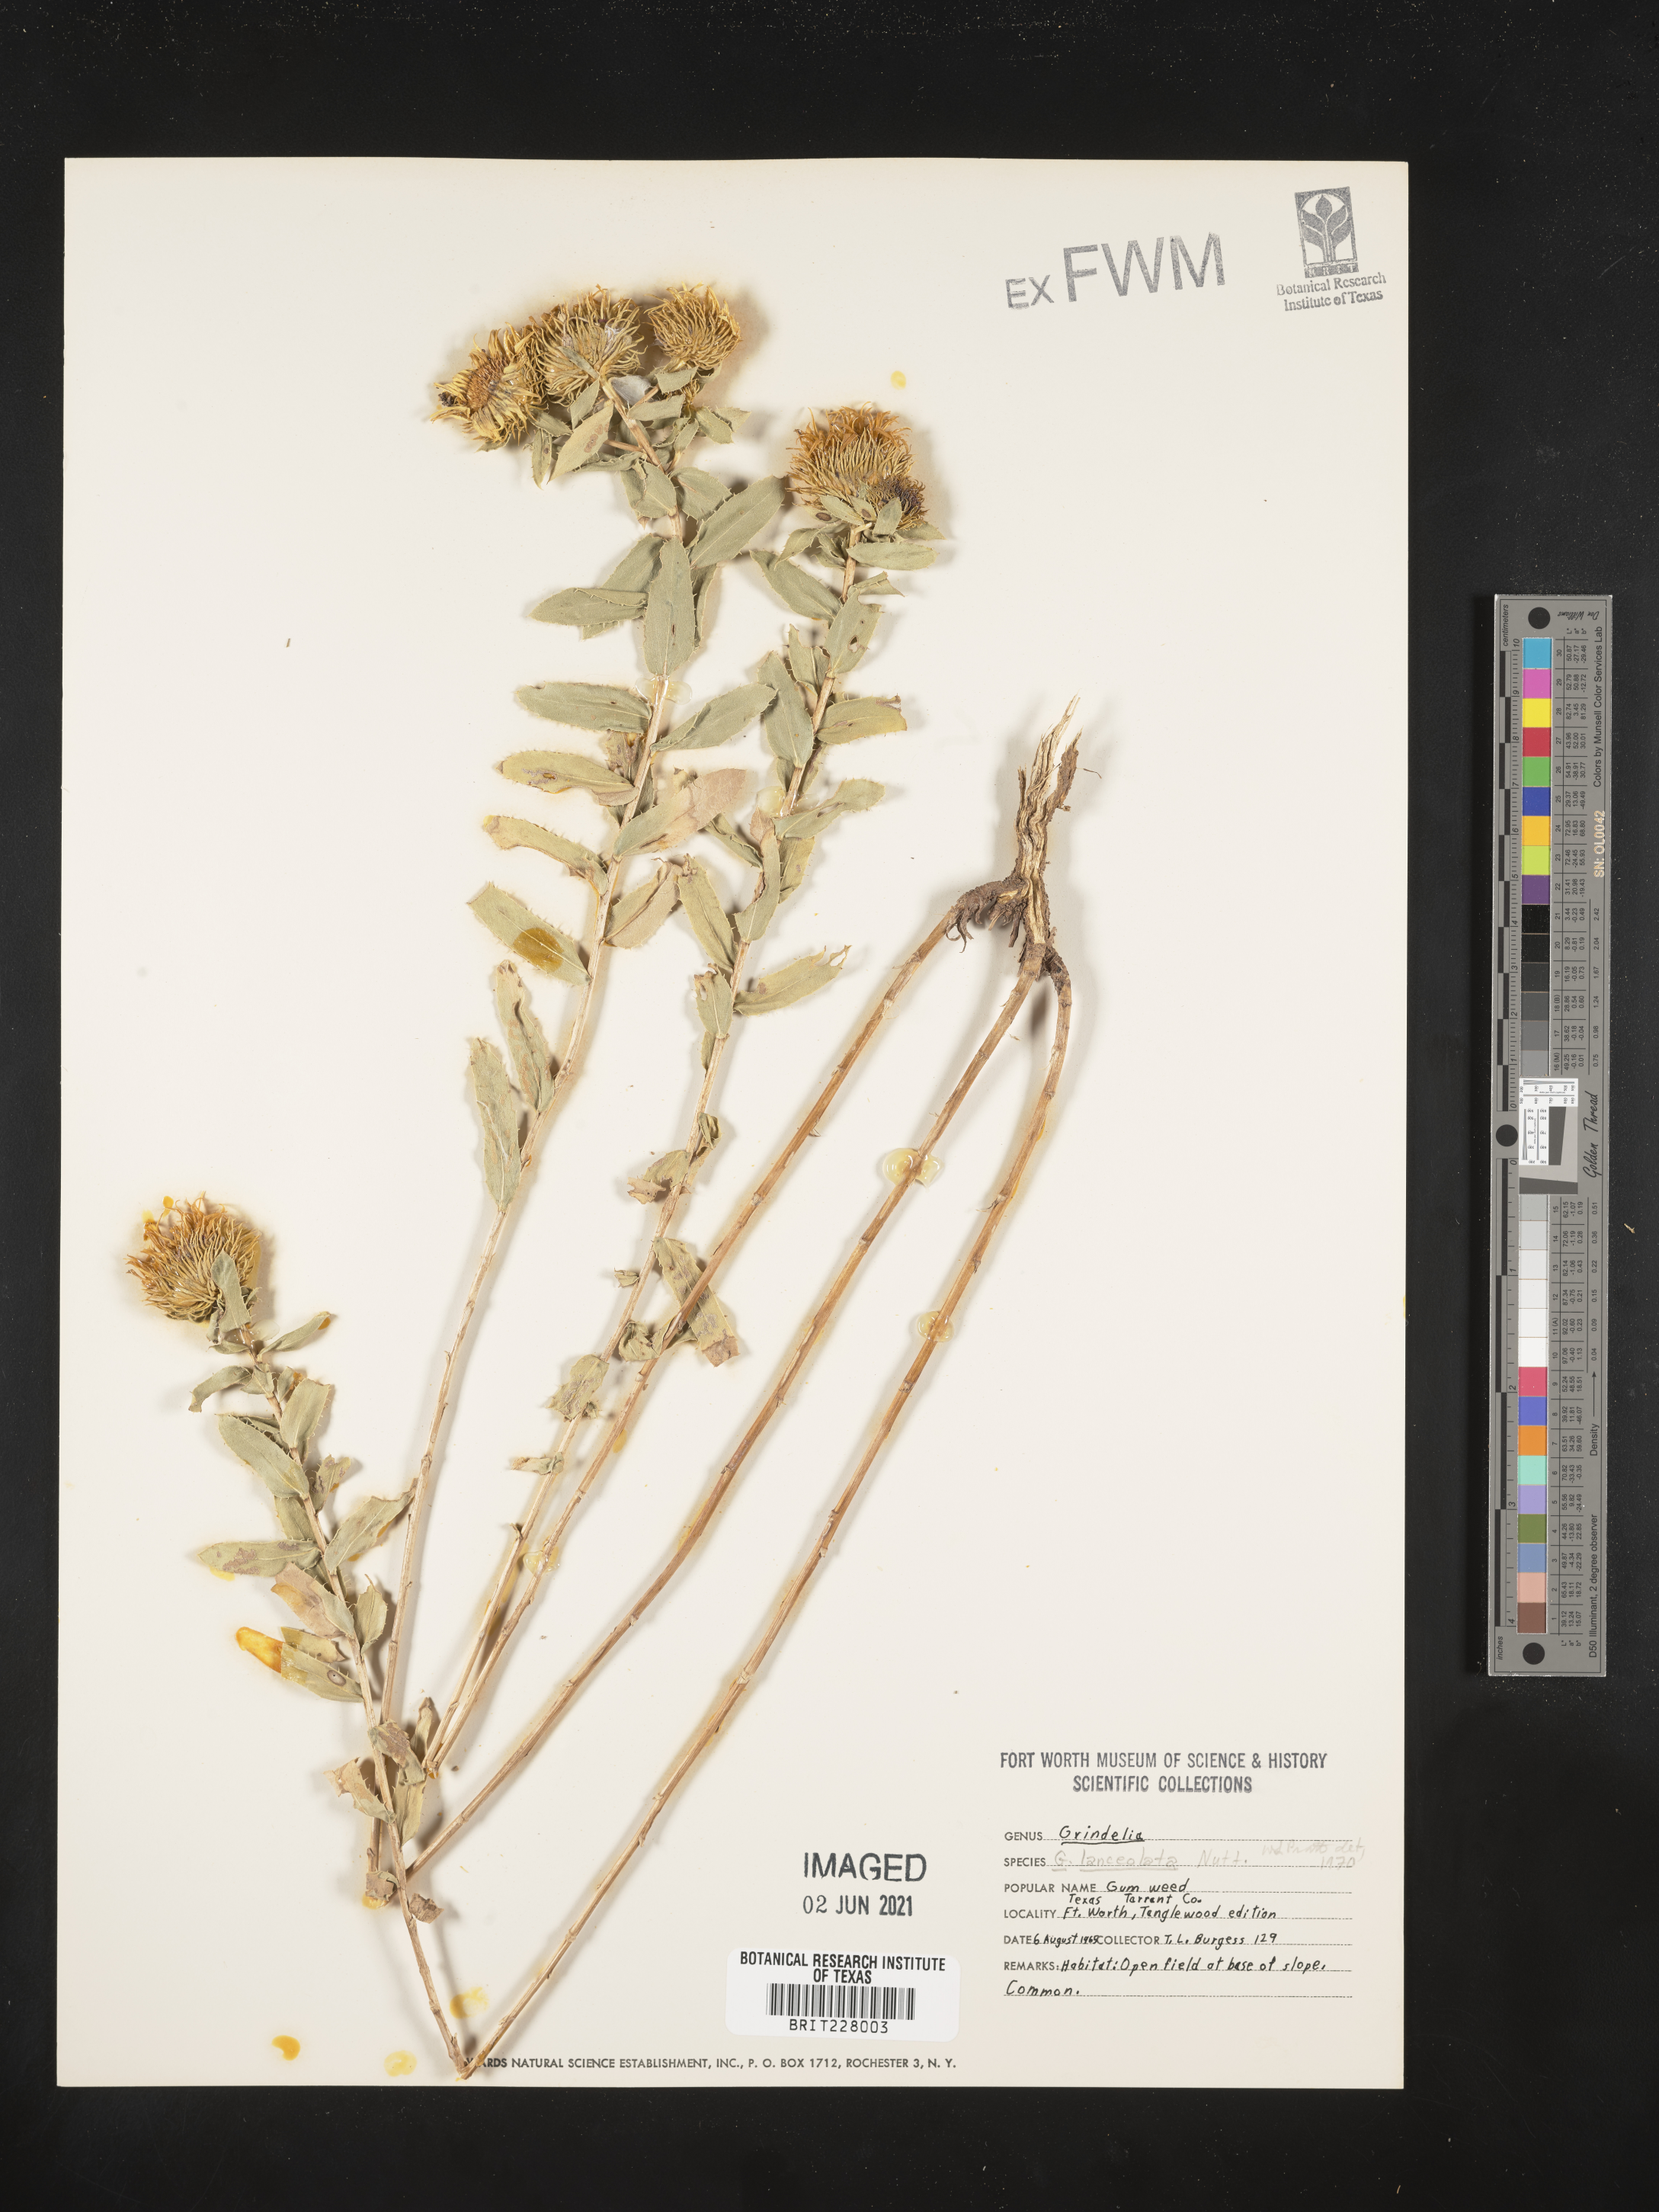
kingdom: Plantae
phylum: Tracheophyta
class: Magnoliopsida
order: Asterales
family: Asteraceae
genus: Grindelia
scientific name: Grindelia lanceolata
